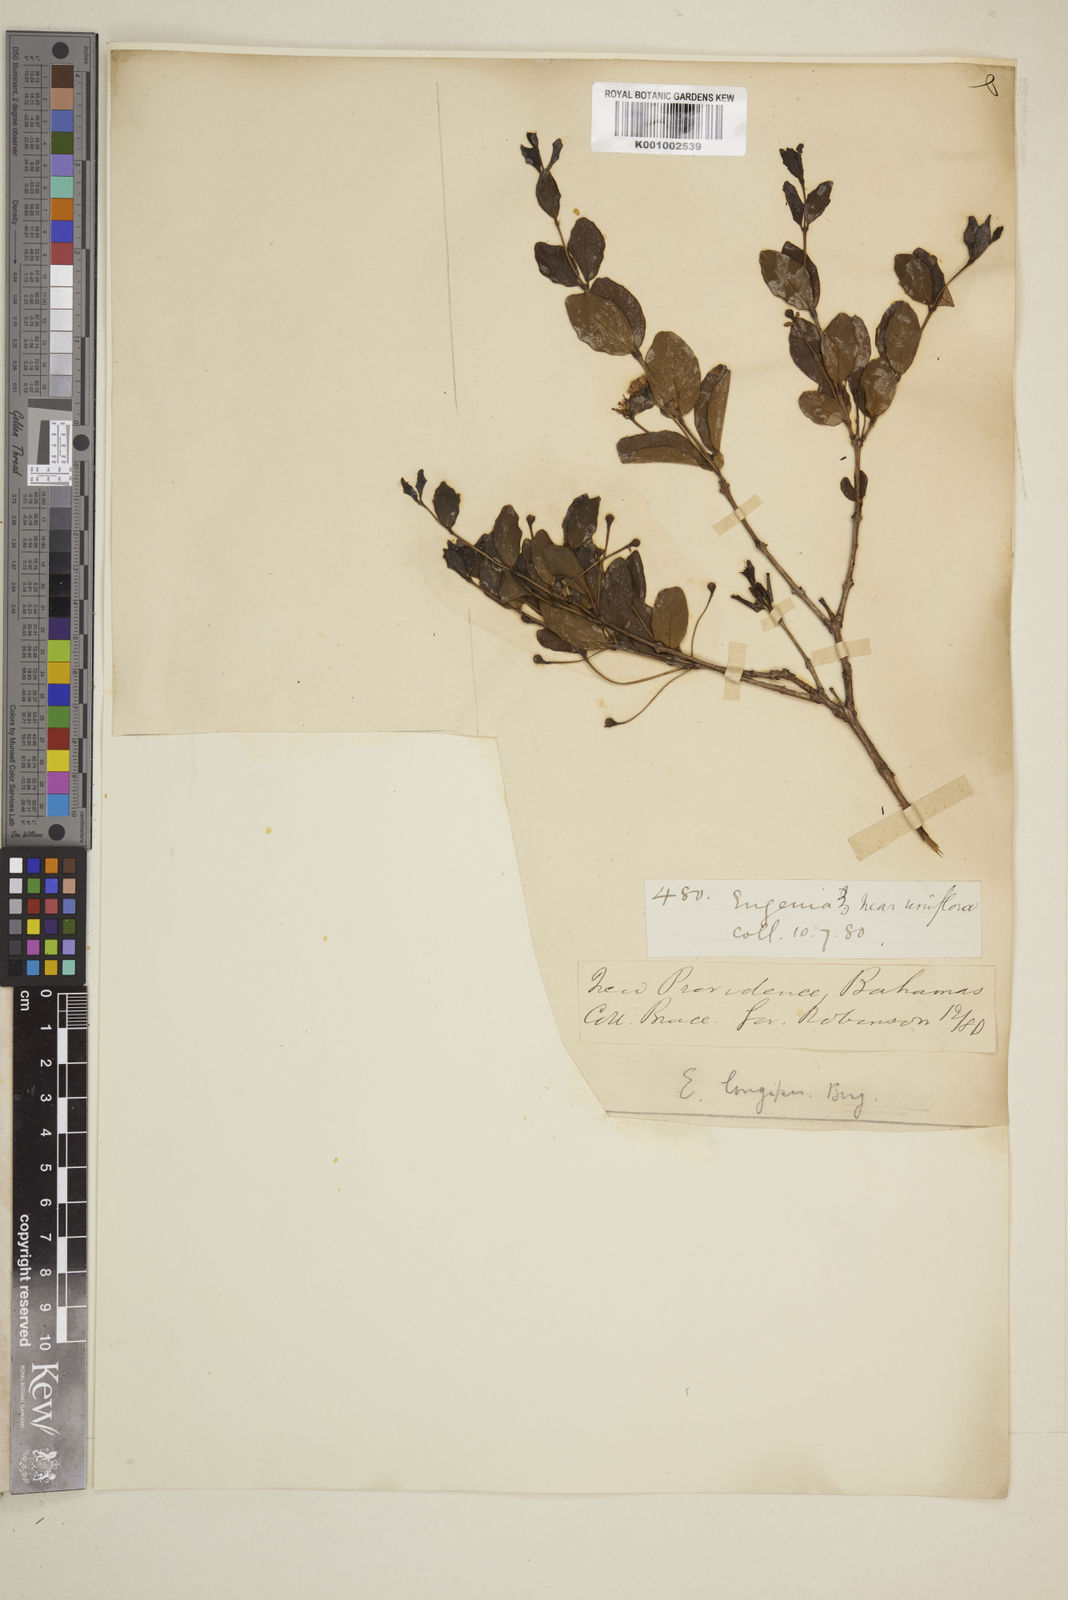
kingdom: Plantae
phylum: Tracheophyta
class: Magnoliopsida
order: Myrtales
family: Myrtaceae
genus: Mosiera
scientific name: Mosiera longipes
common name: Bahama stopper
